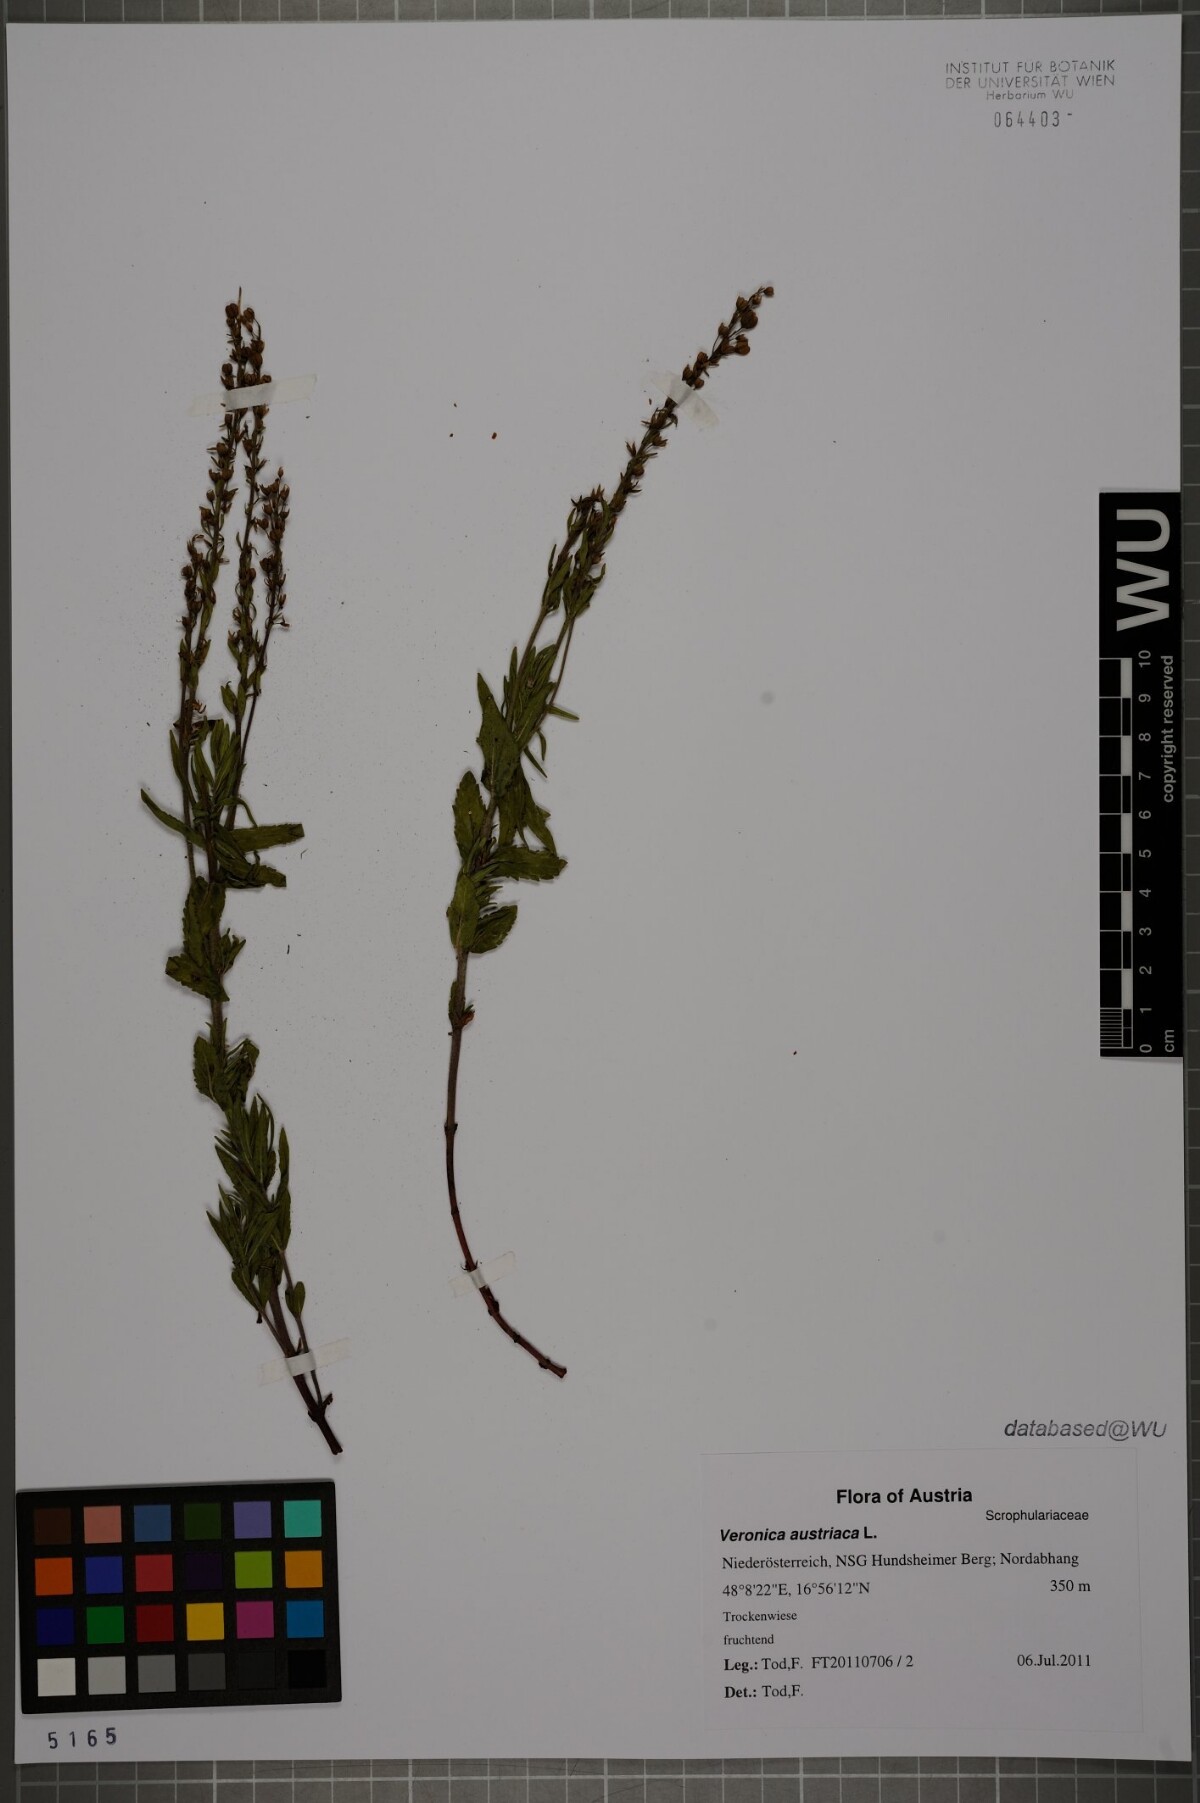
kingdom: Plantae
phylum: Tracheophyta
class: Magnoliopsida
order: Lamiales
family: Plantaginaceae
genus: Veronica
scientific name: Veronica austriaca
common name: Large speedwell
